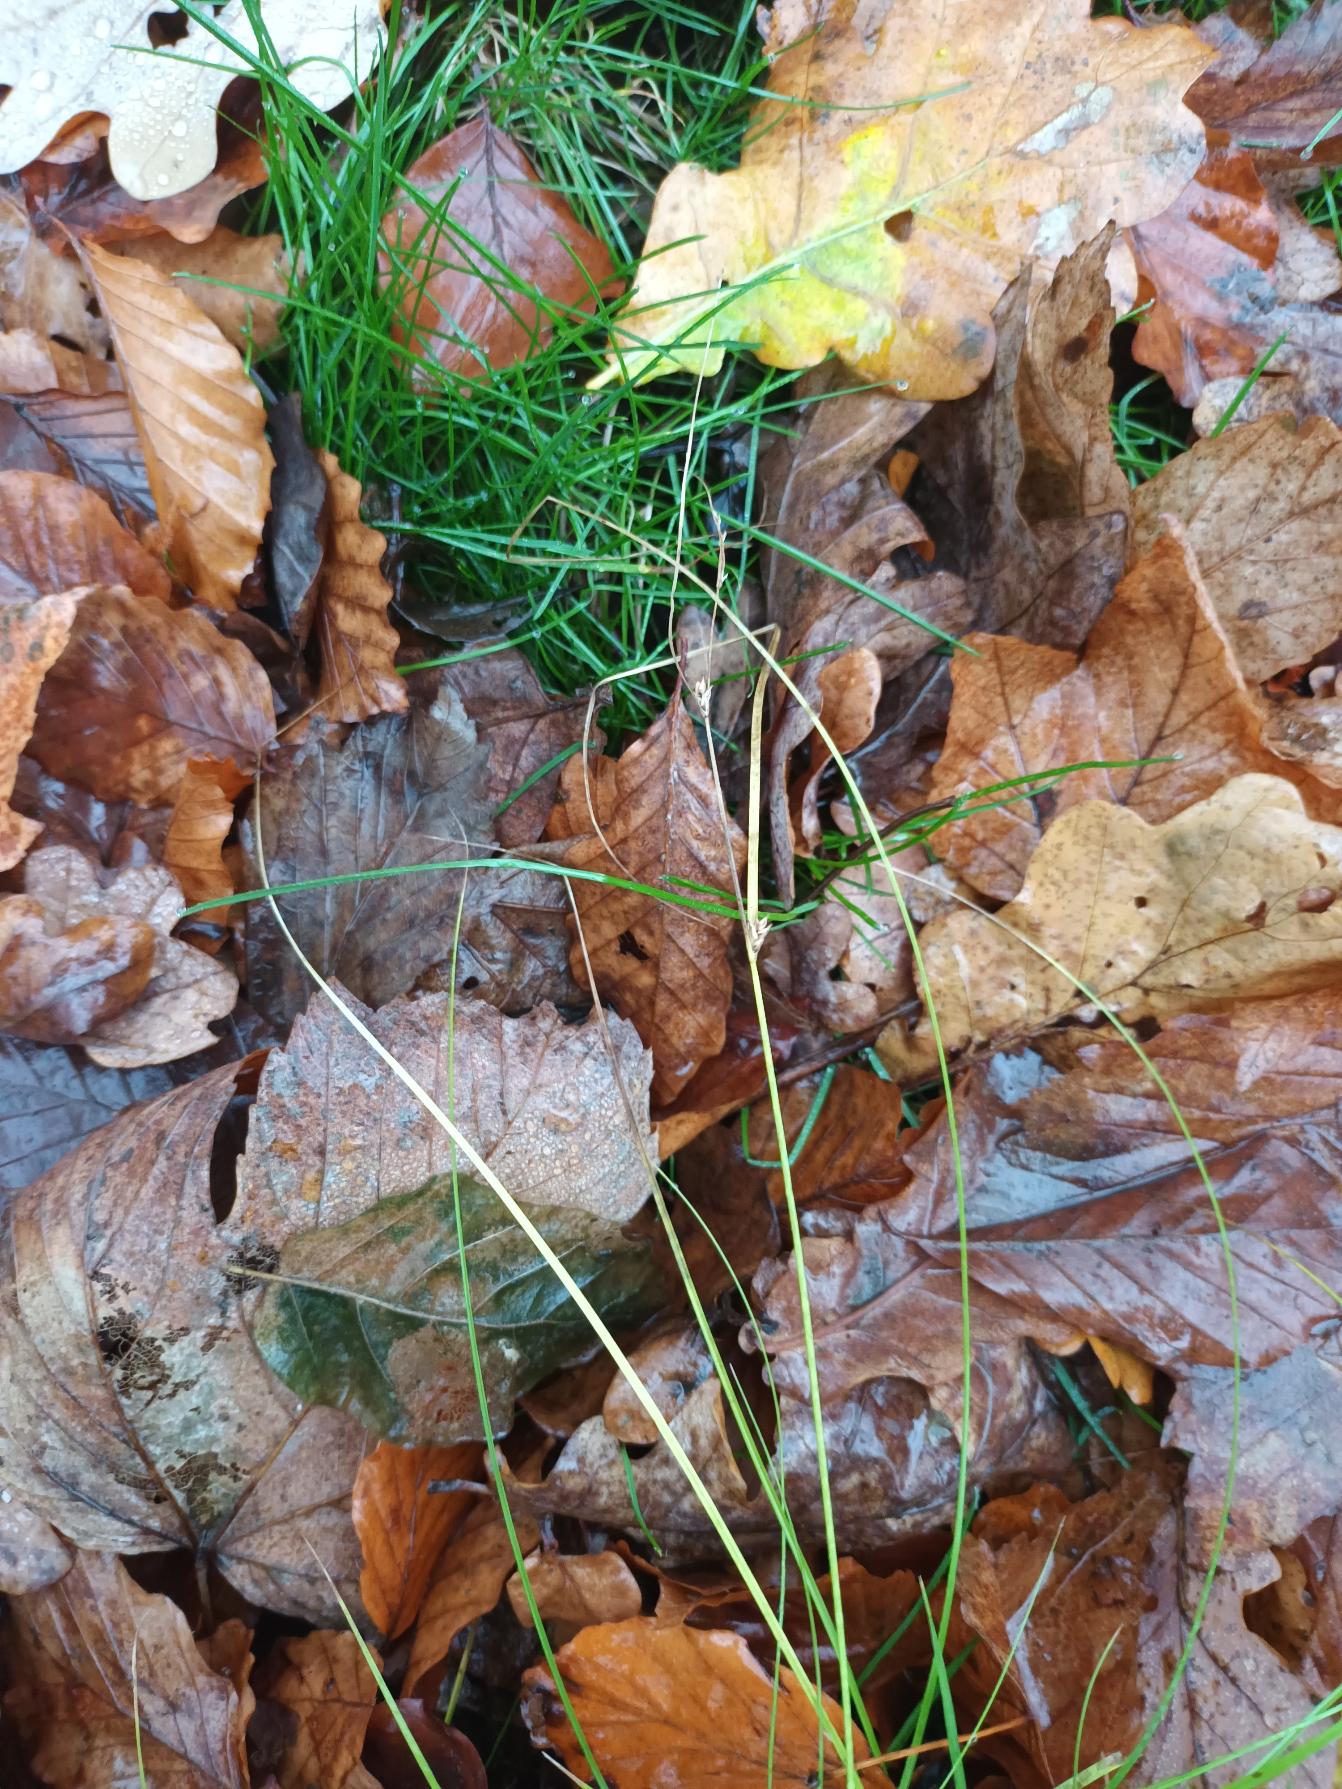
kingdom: Plantae
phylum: Tracheophyta
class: Liliopsida
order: Poales
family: Cyperaceae
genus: Carex
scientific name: Carex remota
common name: Akselblomstret star
